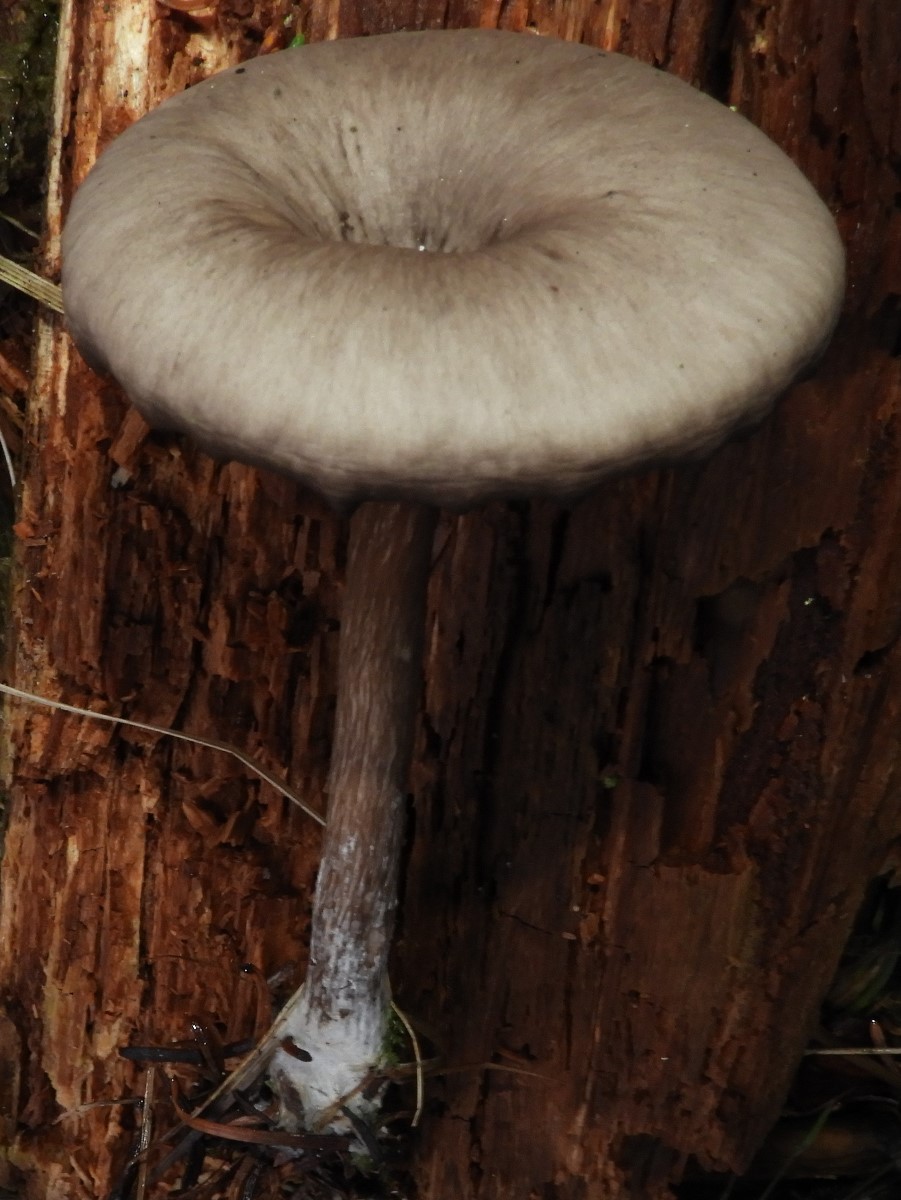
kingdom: Fungi
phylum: Basidiomycota
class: Agaricomycetes
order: Agaricales
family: Pseudoclitocybaceae
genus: Pseudoclitocybe
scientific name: Pseudoclitocybe cyathiformis
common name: almindelig bægertragthat
